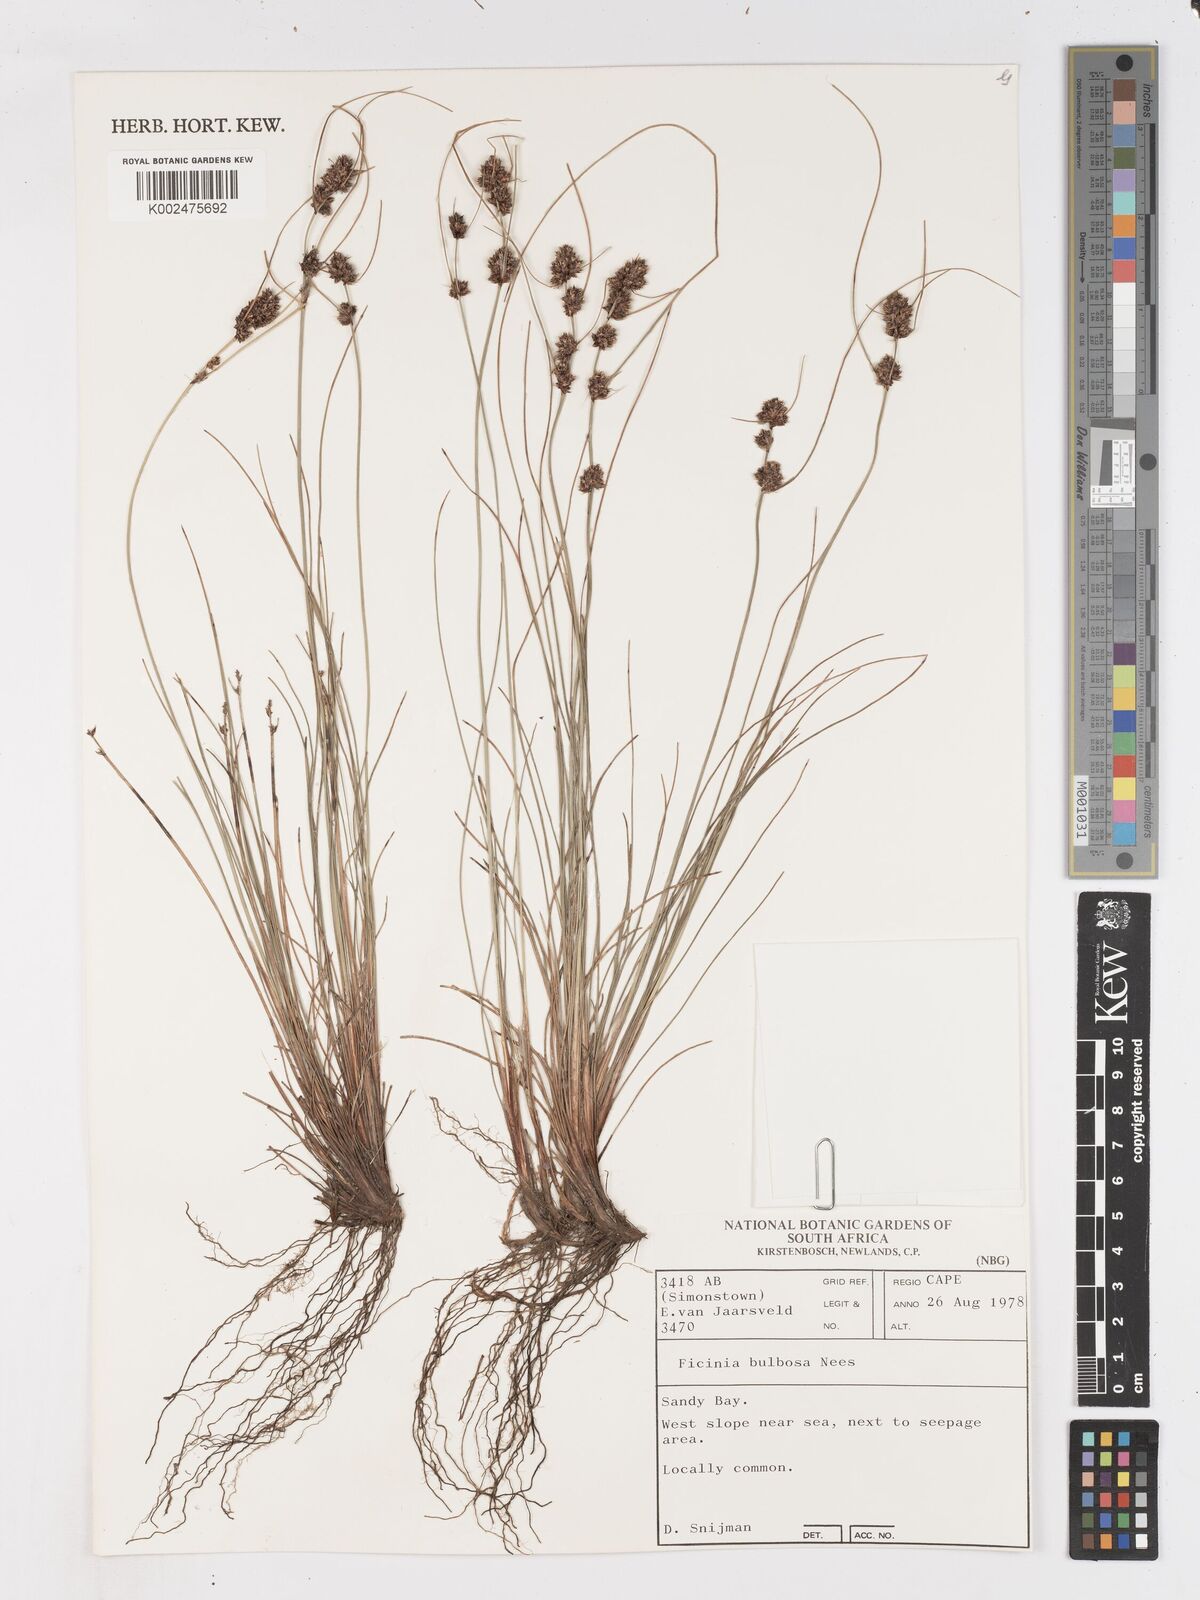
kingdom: Plantae
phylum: Tracheophyta
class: Liliopsida
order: Poales
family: Cyperaceae
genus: Ficinia
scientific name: Ficinia bulbosa
